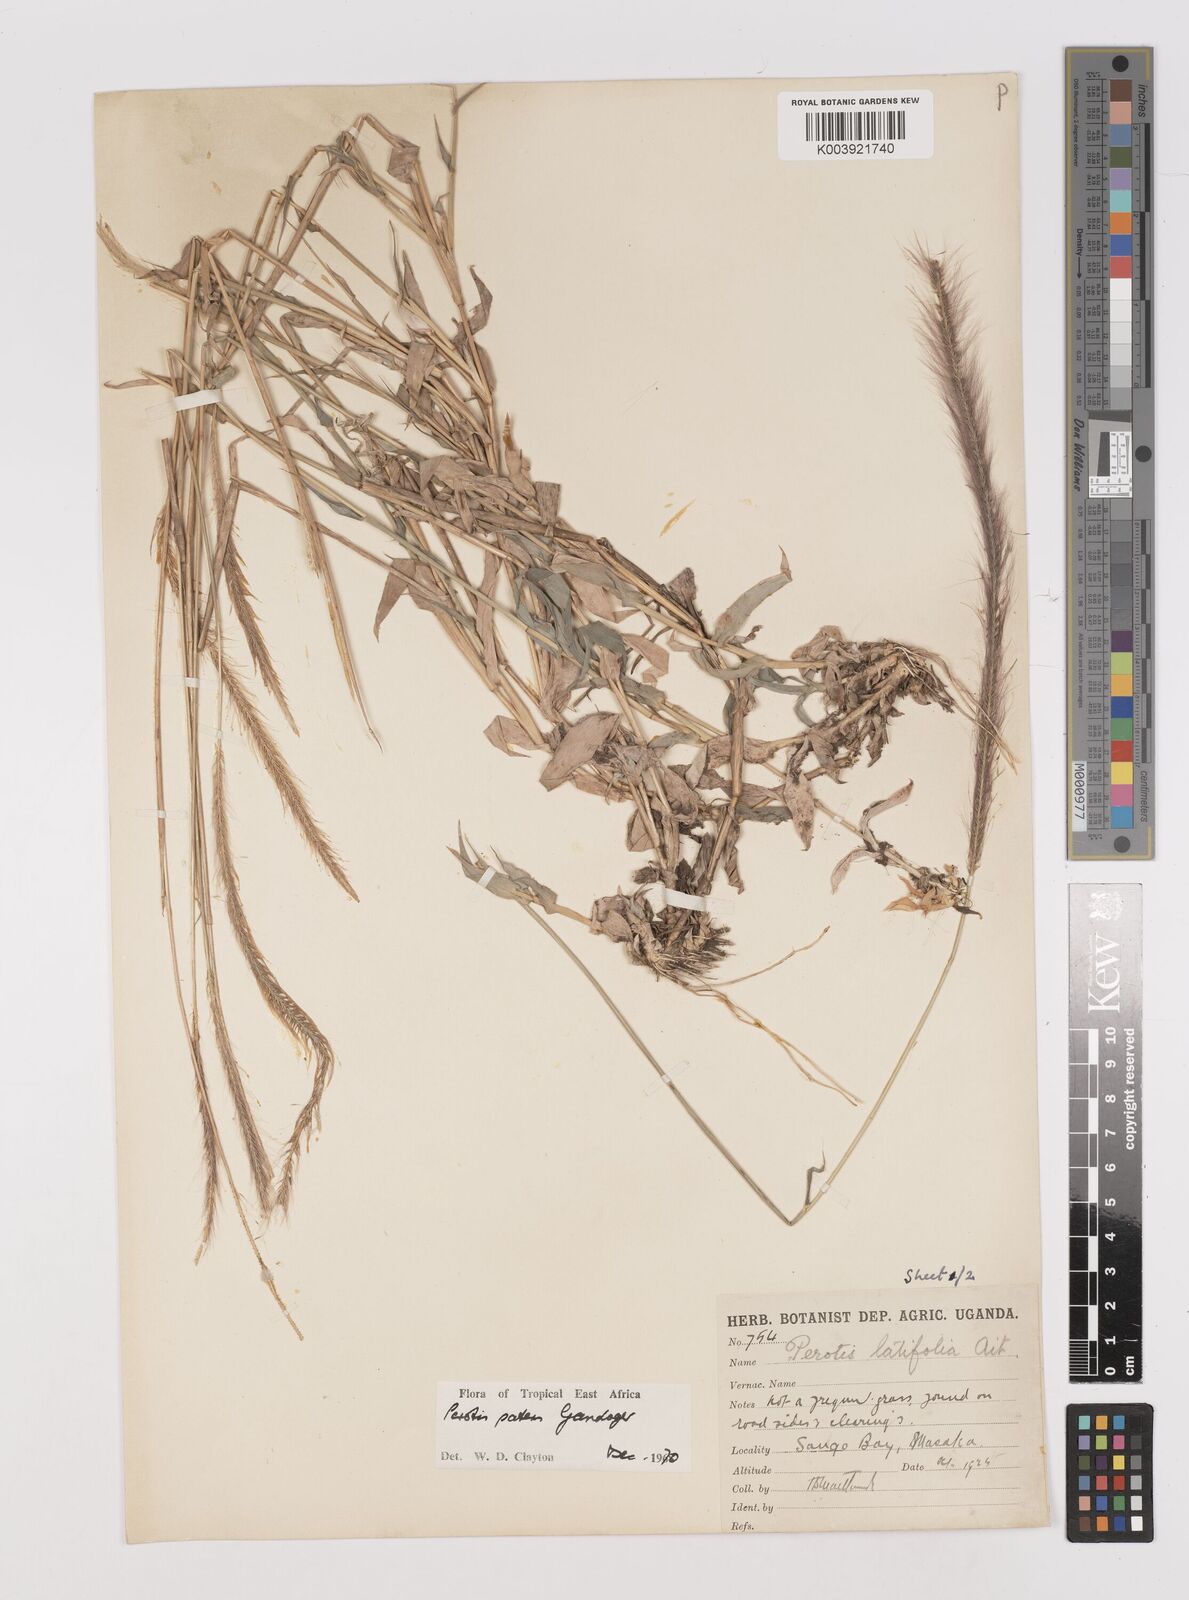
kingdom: Plantae
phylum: Tracheophyta
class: Liliopsida
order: Poales
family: Poaceae
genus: Perotis
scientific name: Perotis patens
